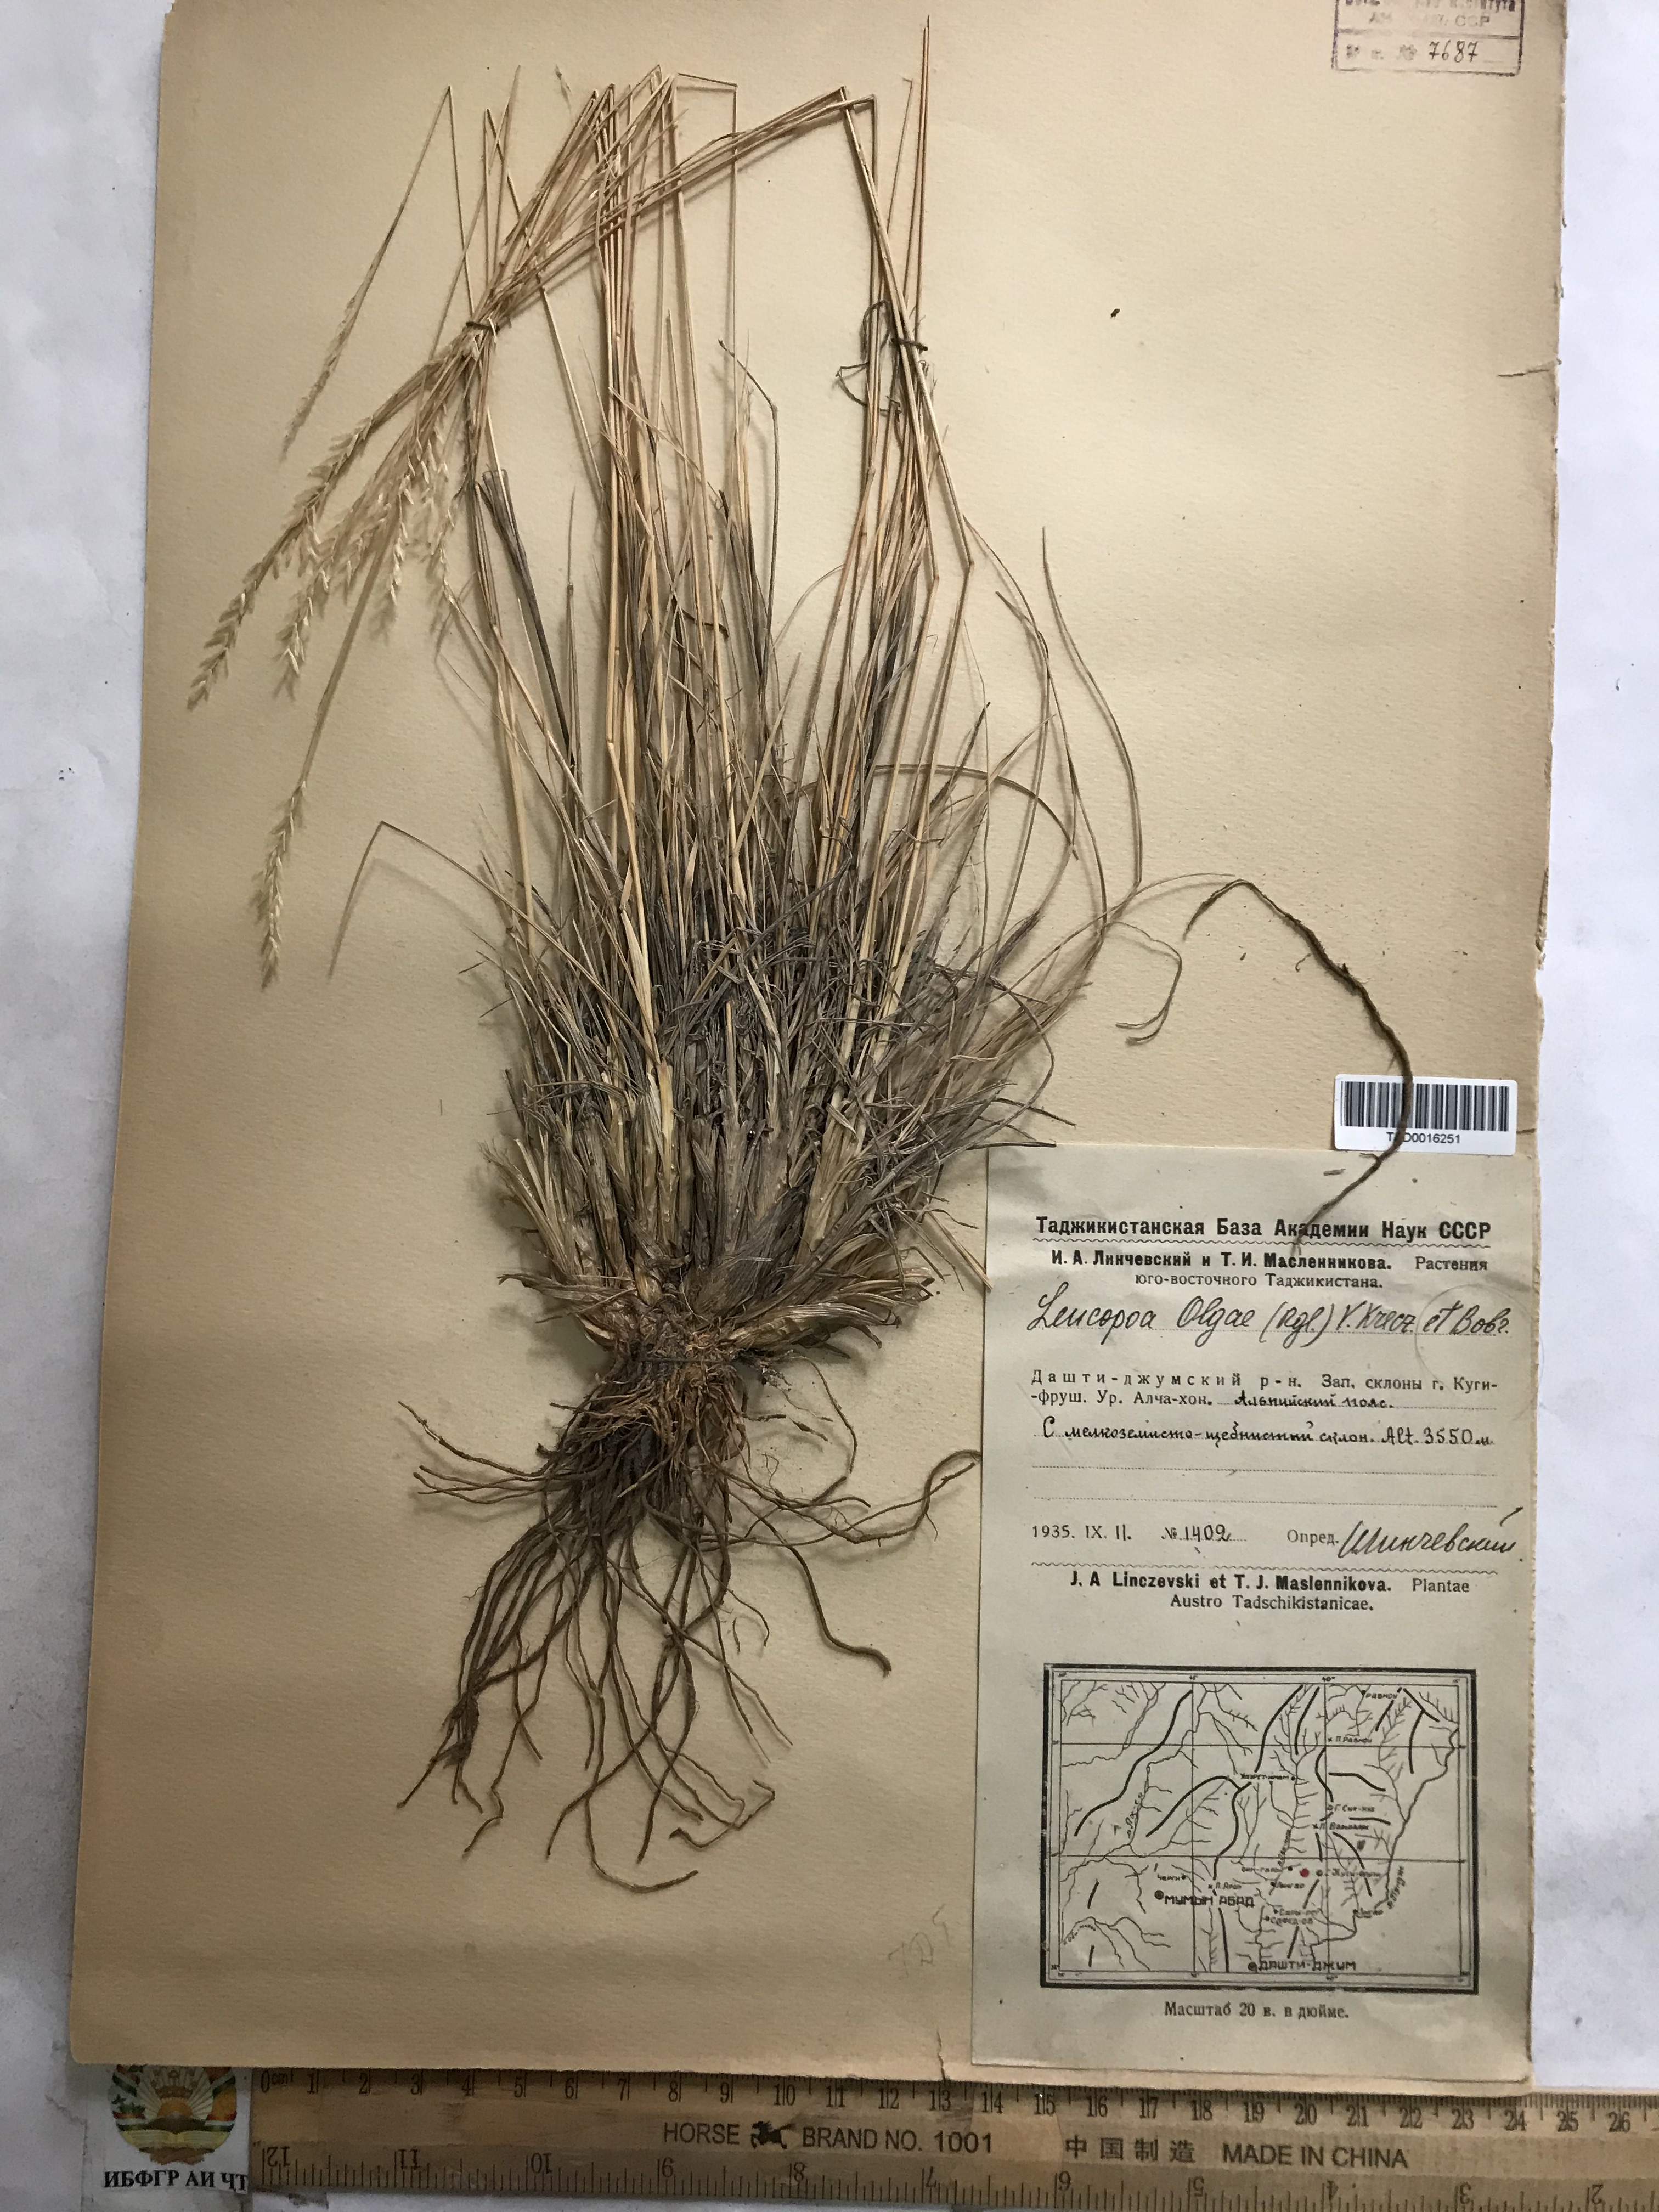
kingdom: Plantae
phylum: Tracheophyta
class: Liliopsida
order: Poales
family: Poaceae
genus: Festuca
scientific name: Festuca
